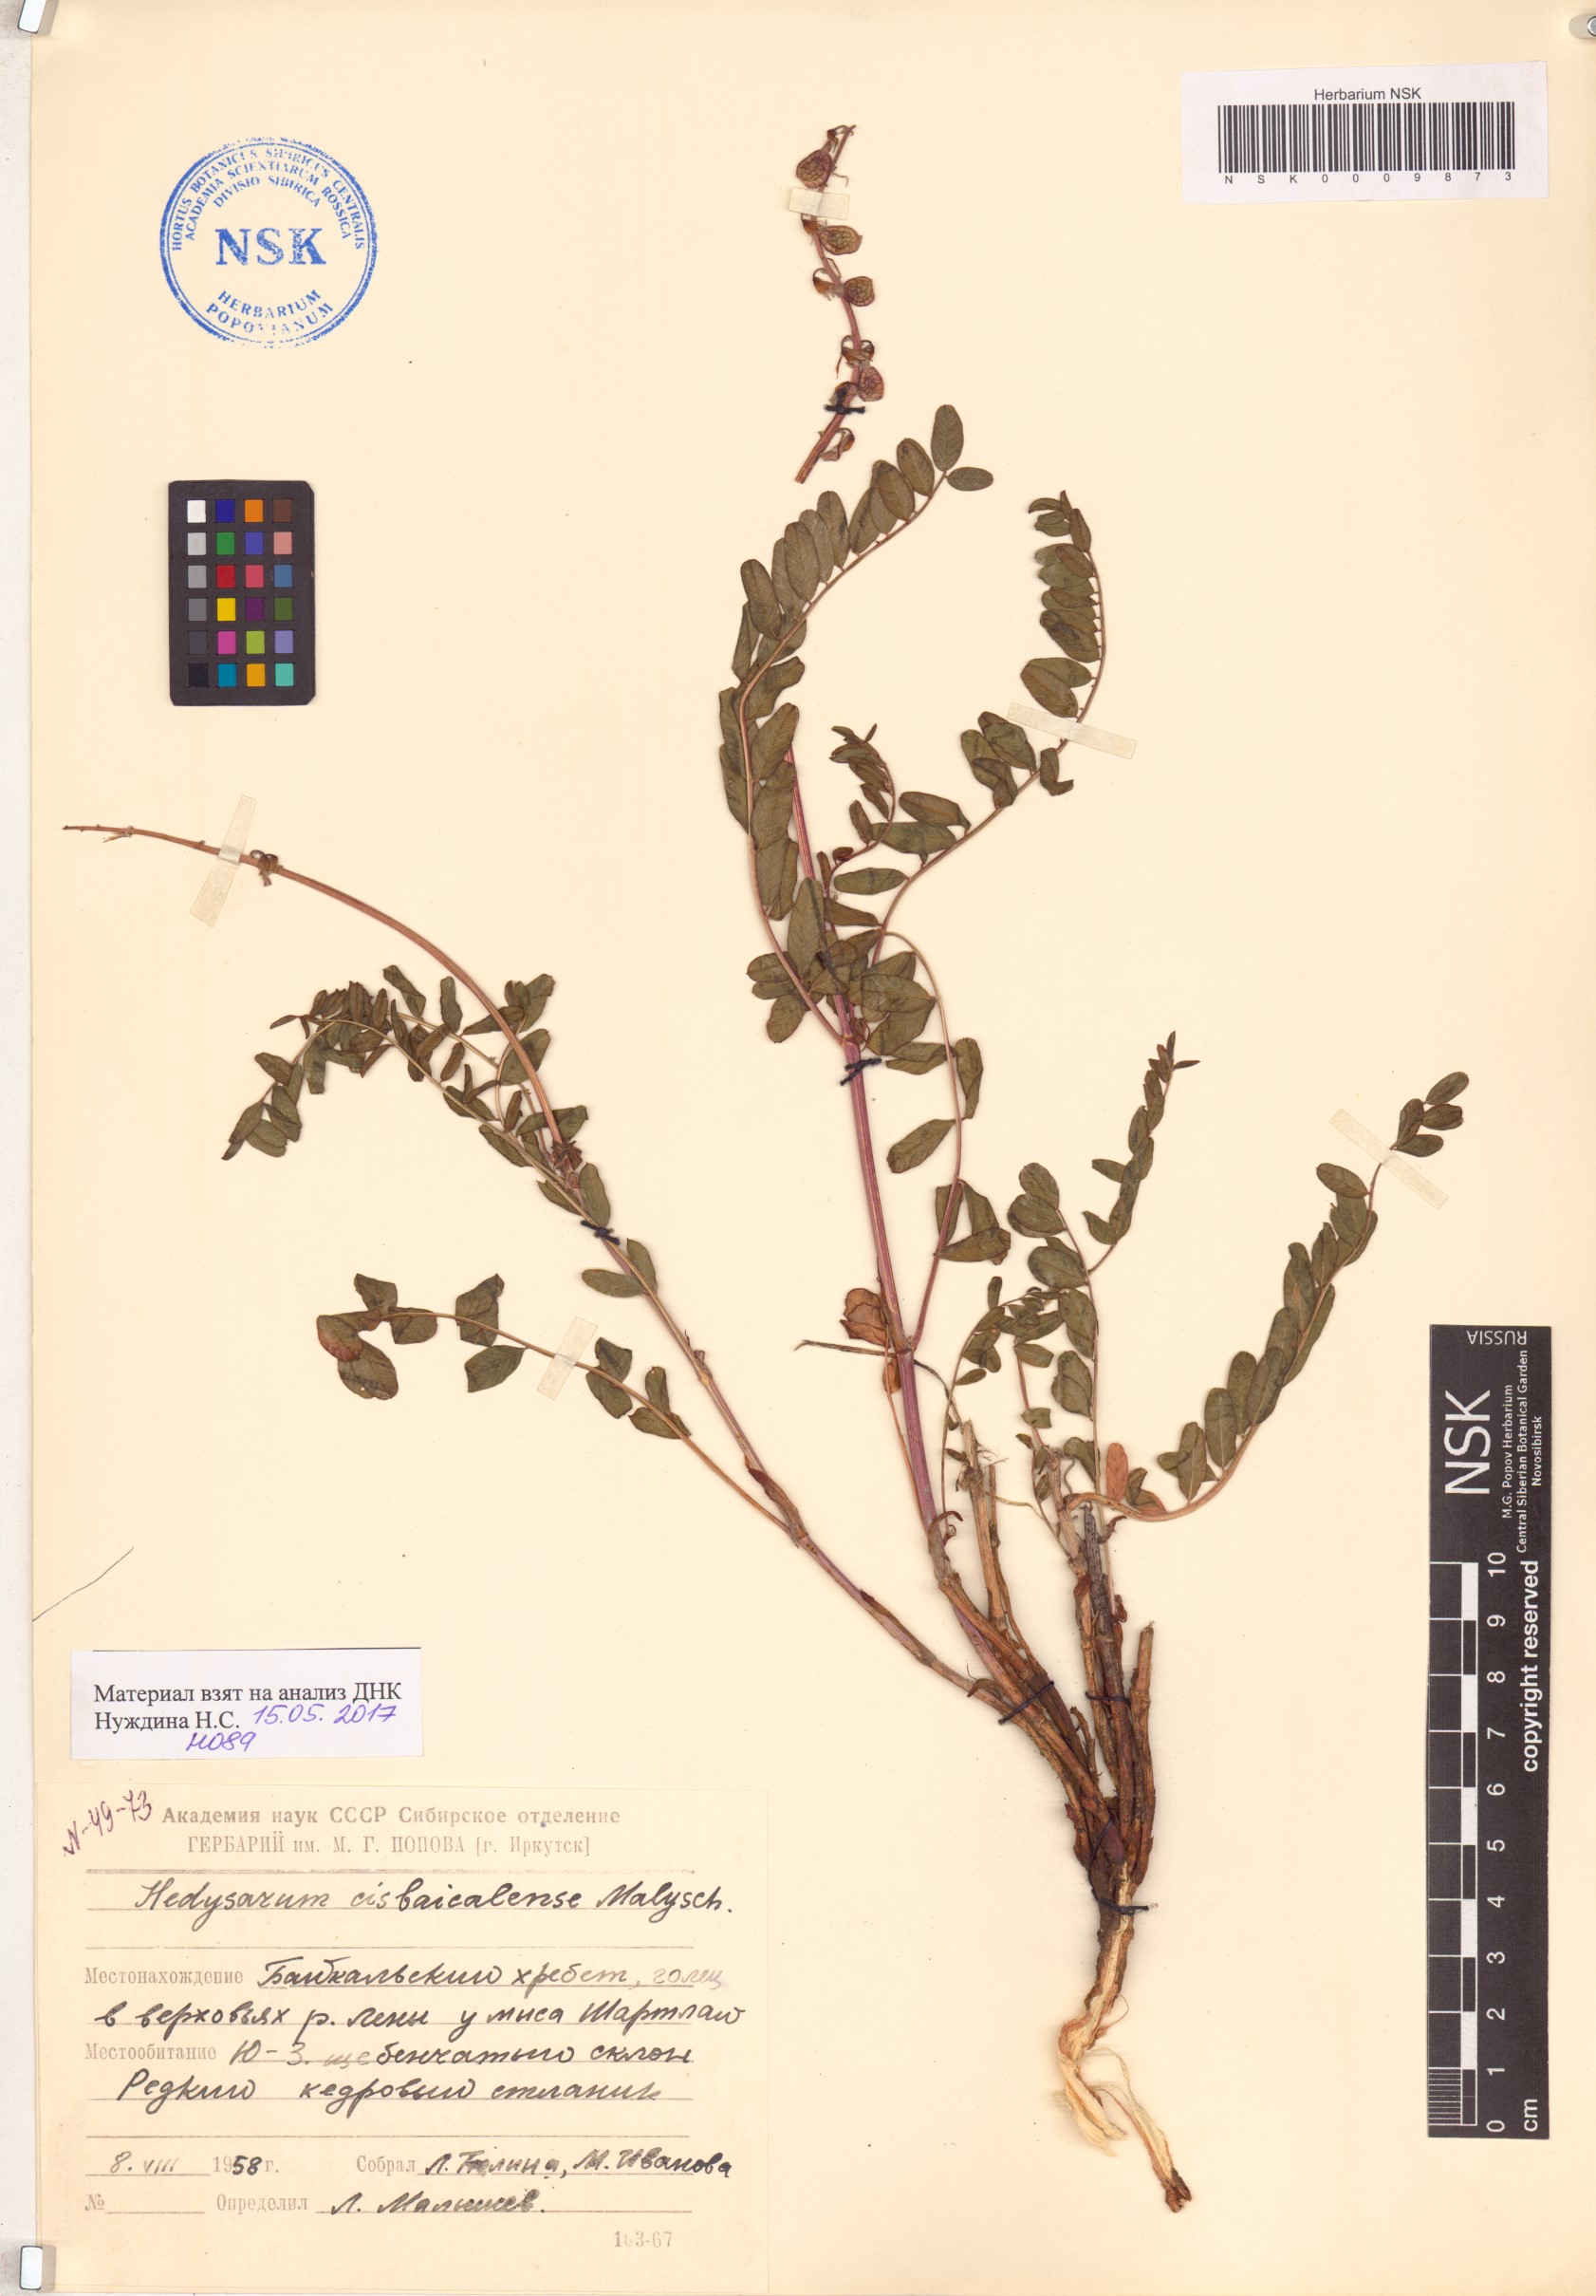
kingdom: Plantae
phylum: Tracheophyta
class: Magnoliopsida
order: Fabales
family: Fabaceae
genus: Hedysarum
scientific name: Hedysarum cisbaicalense
